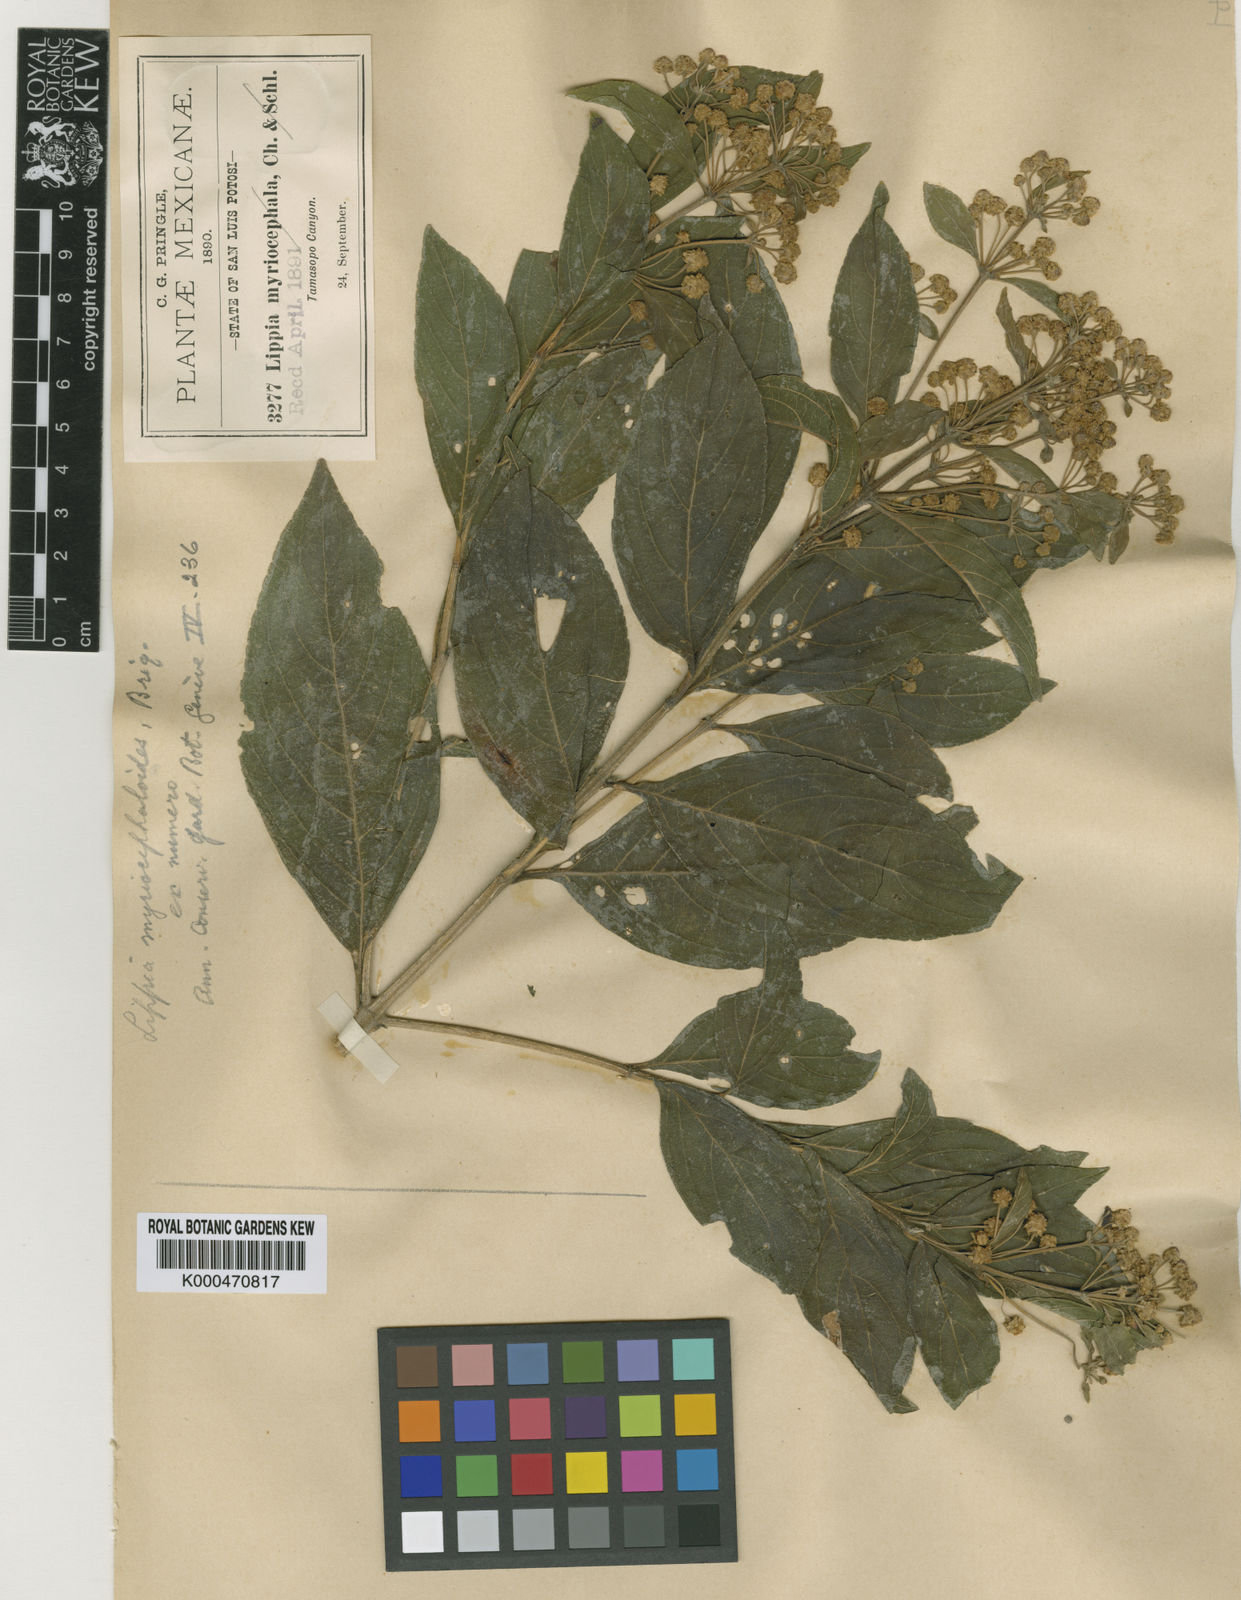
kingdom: Plantae
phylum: Tracheophyta
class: Magnoliopsida
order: Lamiales
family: Verbenaceae
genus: Lippia
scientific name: Lippia myriocephala
